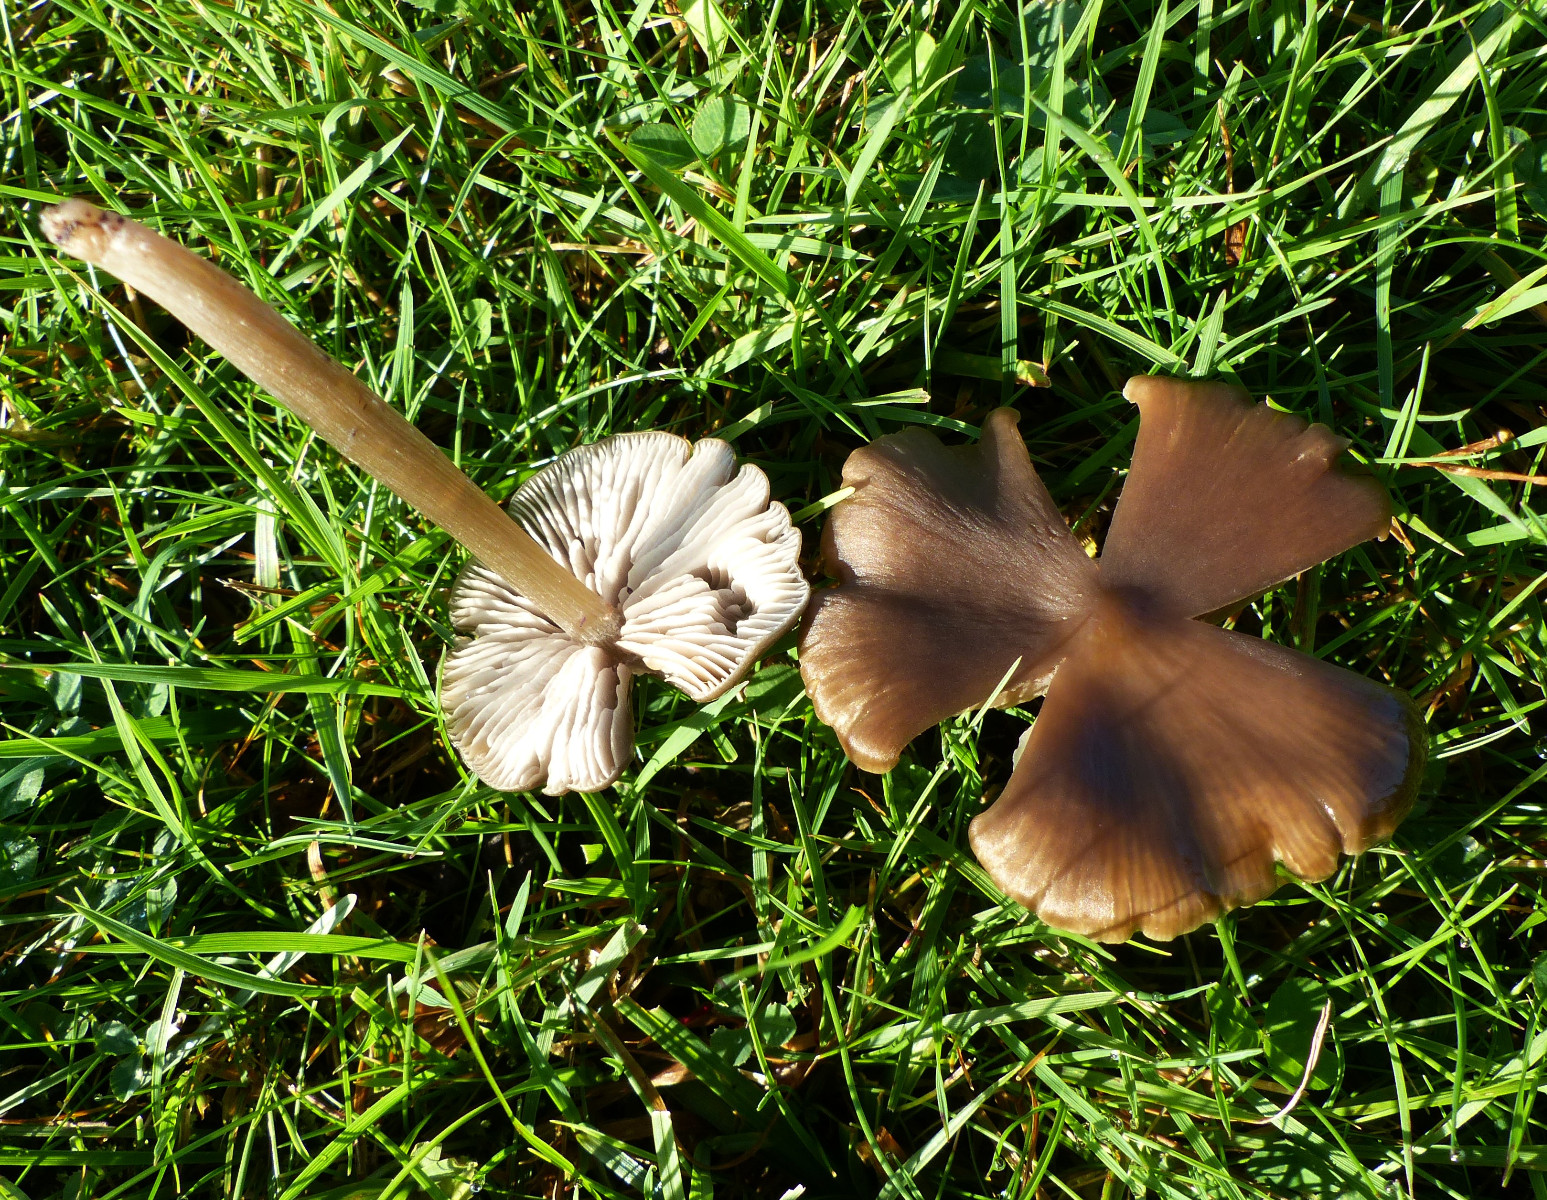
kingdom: Fungi
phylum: Basidiomycota
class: Agaricomycetes
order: Agaricales
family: Entolomataceae
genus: Entoloma
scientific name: Entoloma
